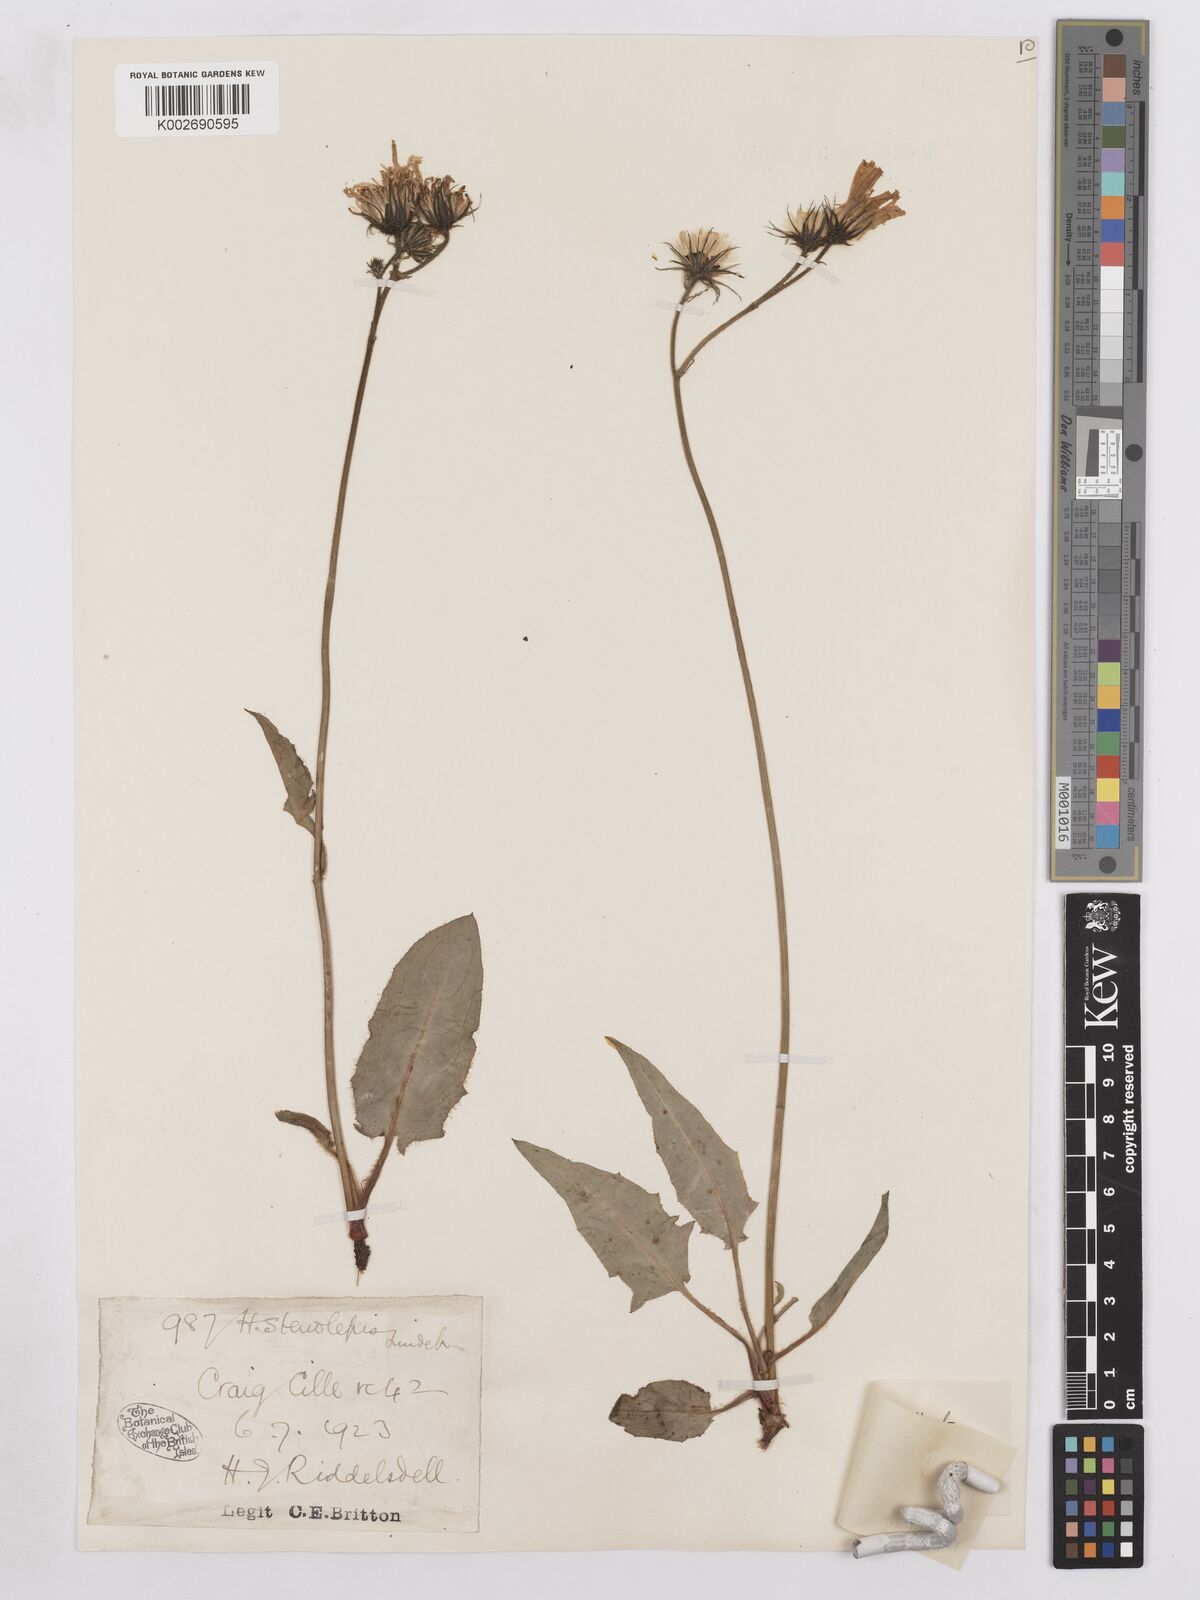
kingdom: Plantae
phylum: Tracheophyta
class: Magnoliopsida
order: Asterales
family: Asteraceae
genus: Hieracium
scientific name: Hieracium subbritannicum
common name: Limestone hawkweed
